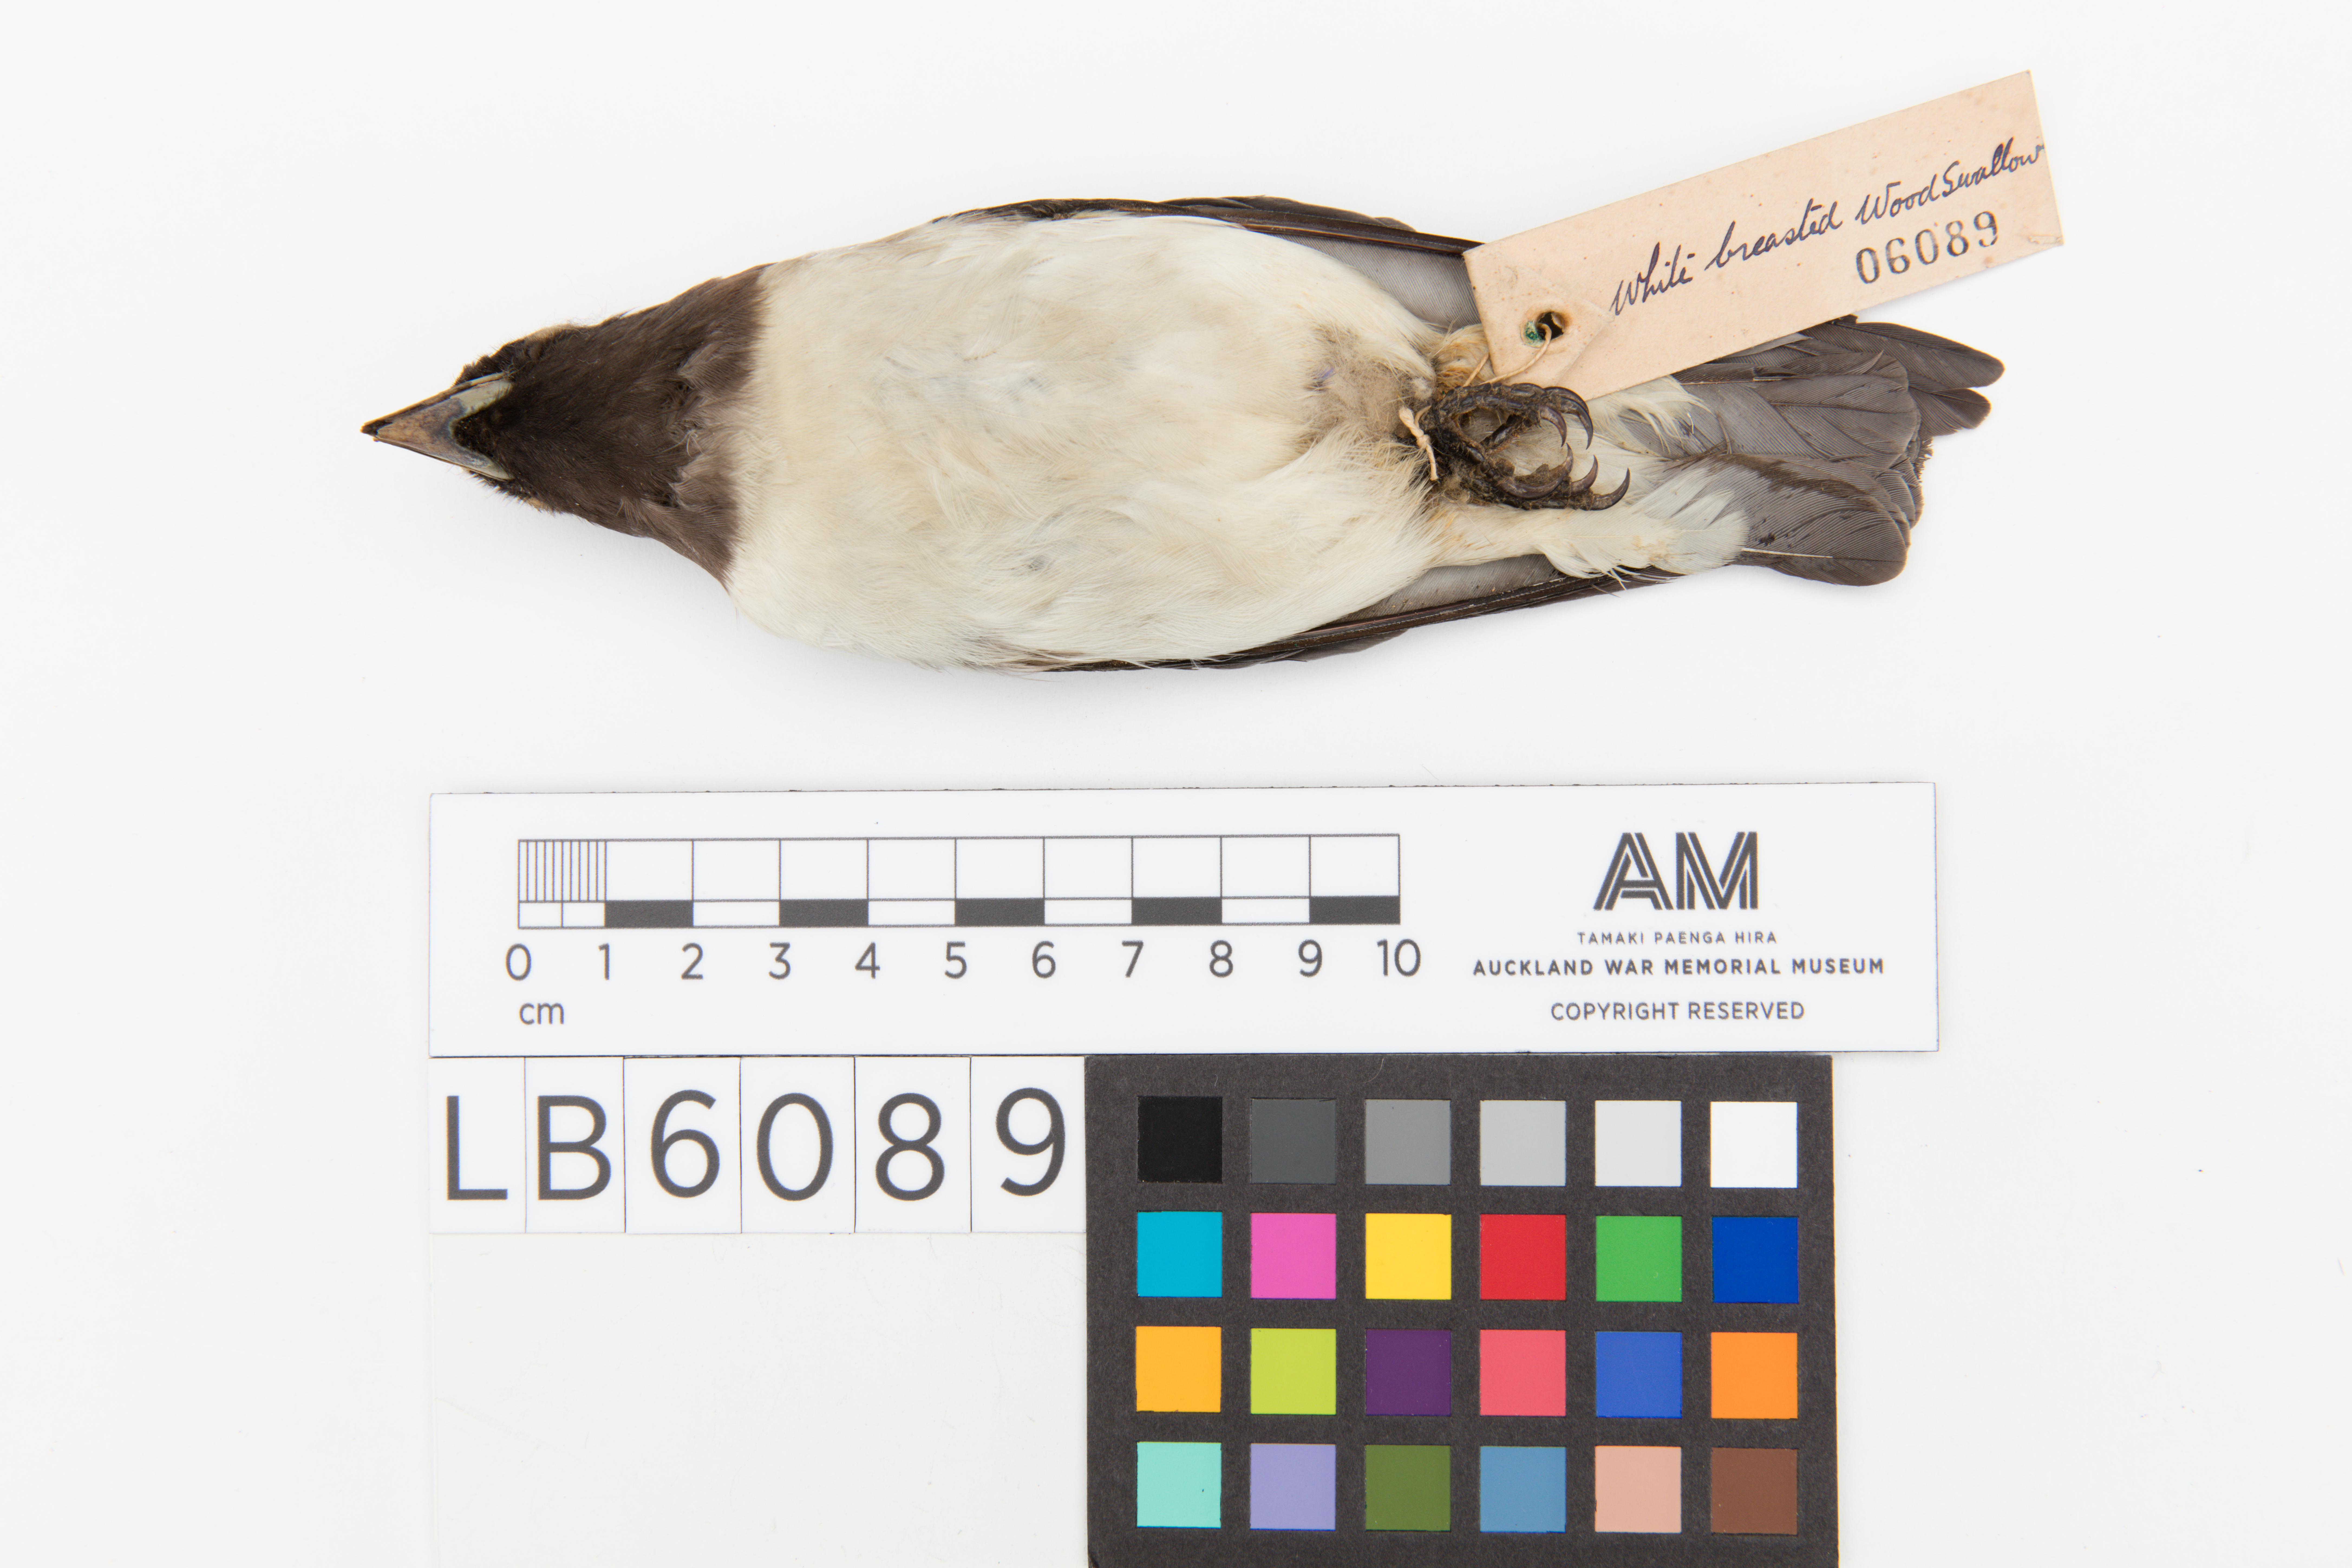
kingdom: Animalia
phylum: Chordata
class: Aves
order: Passeriformes
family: Artamidae
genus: Artamus
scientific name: Artamus leucoryn
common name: White-breasted woodswallow
